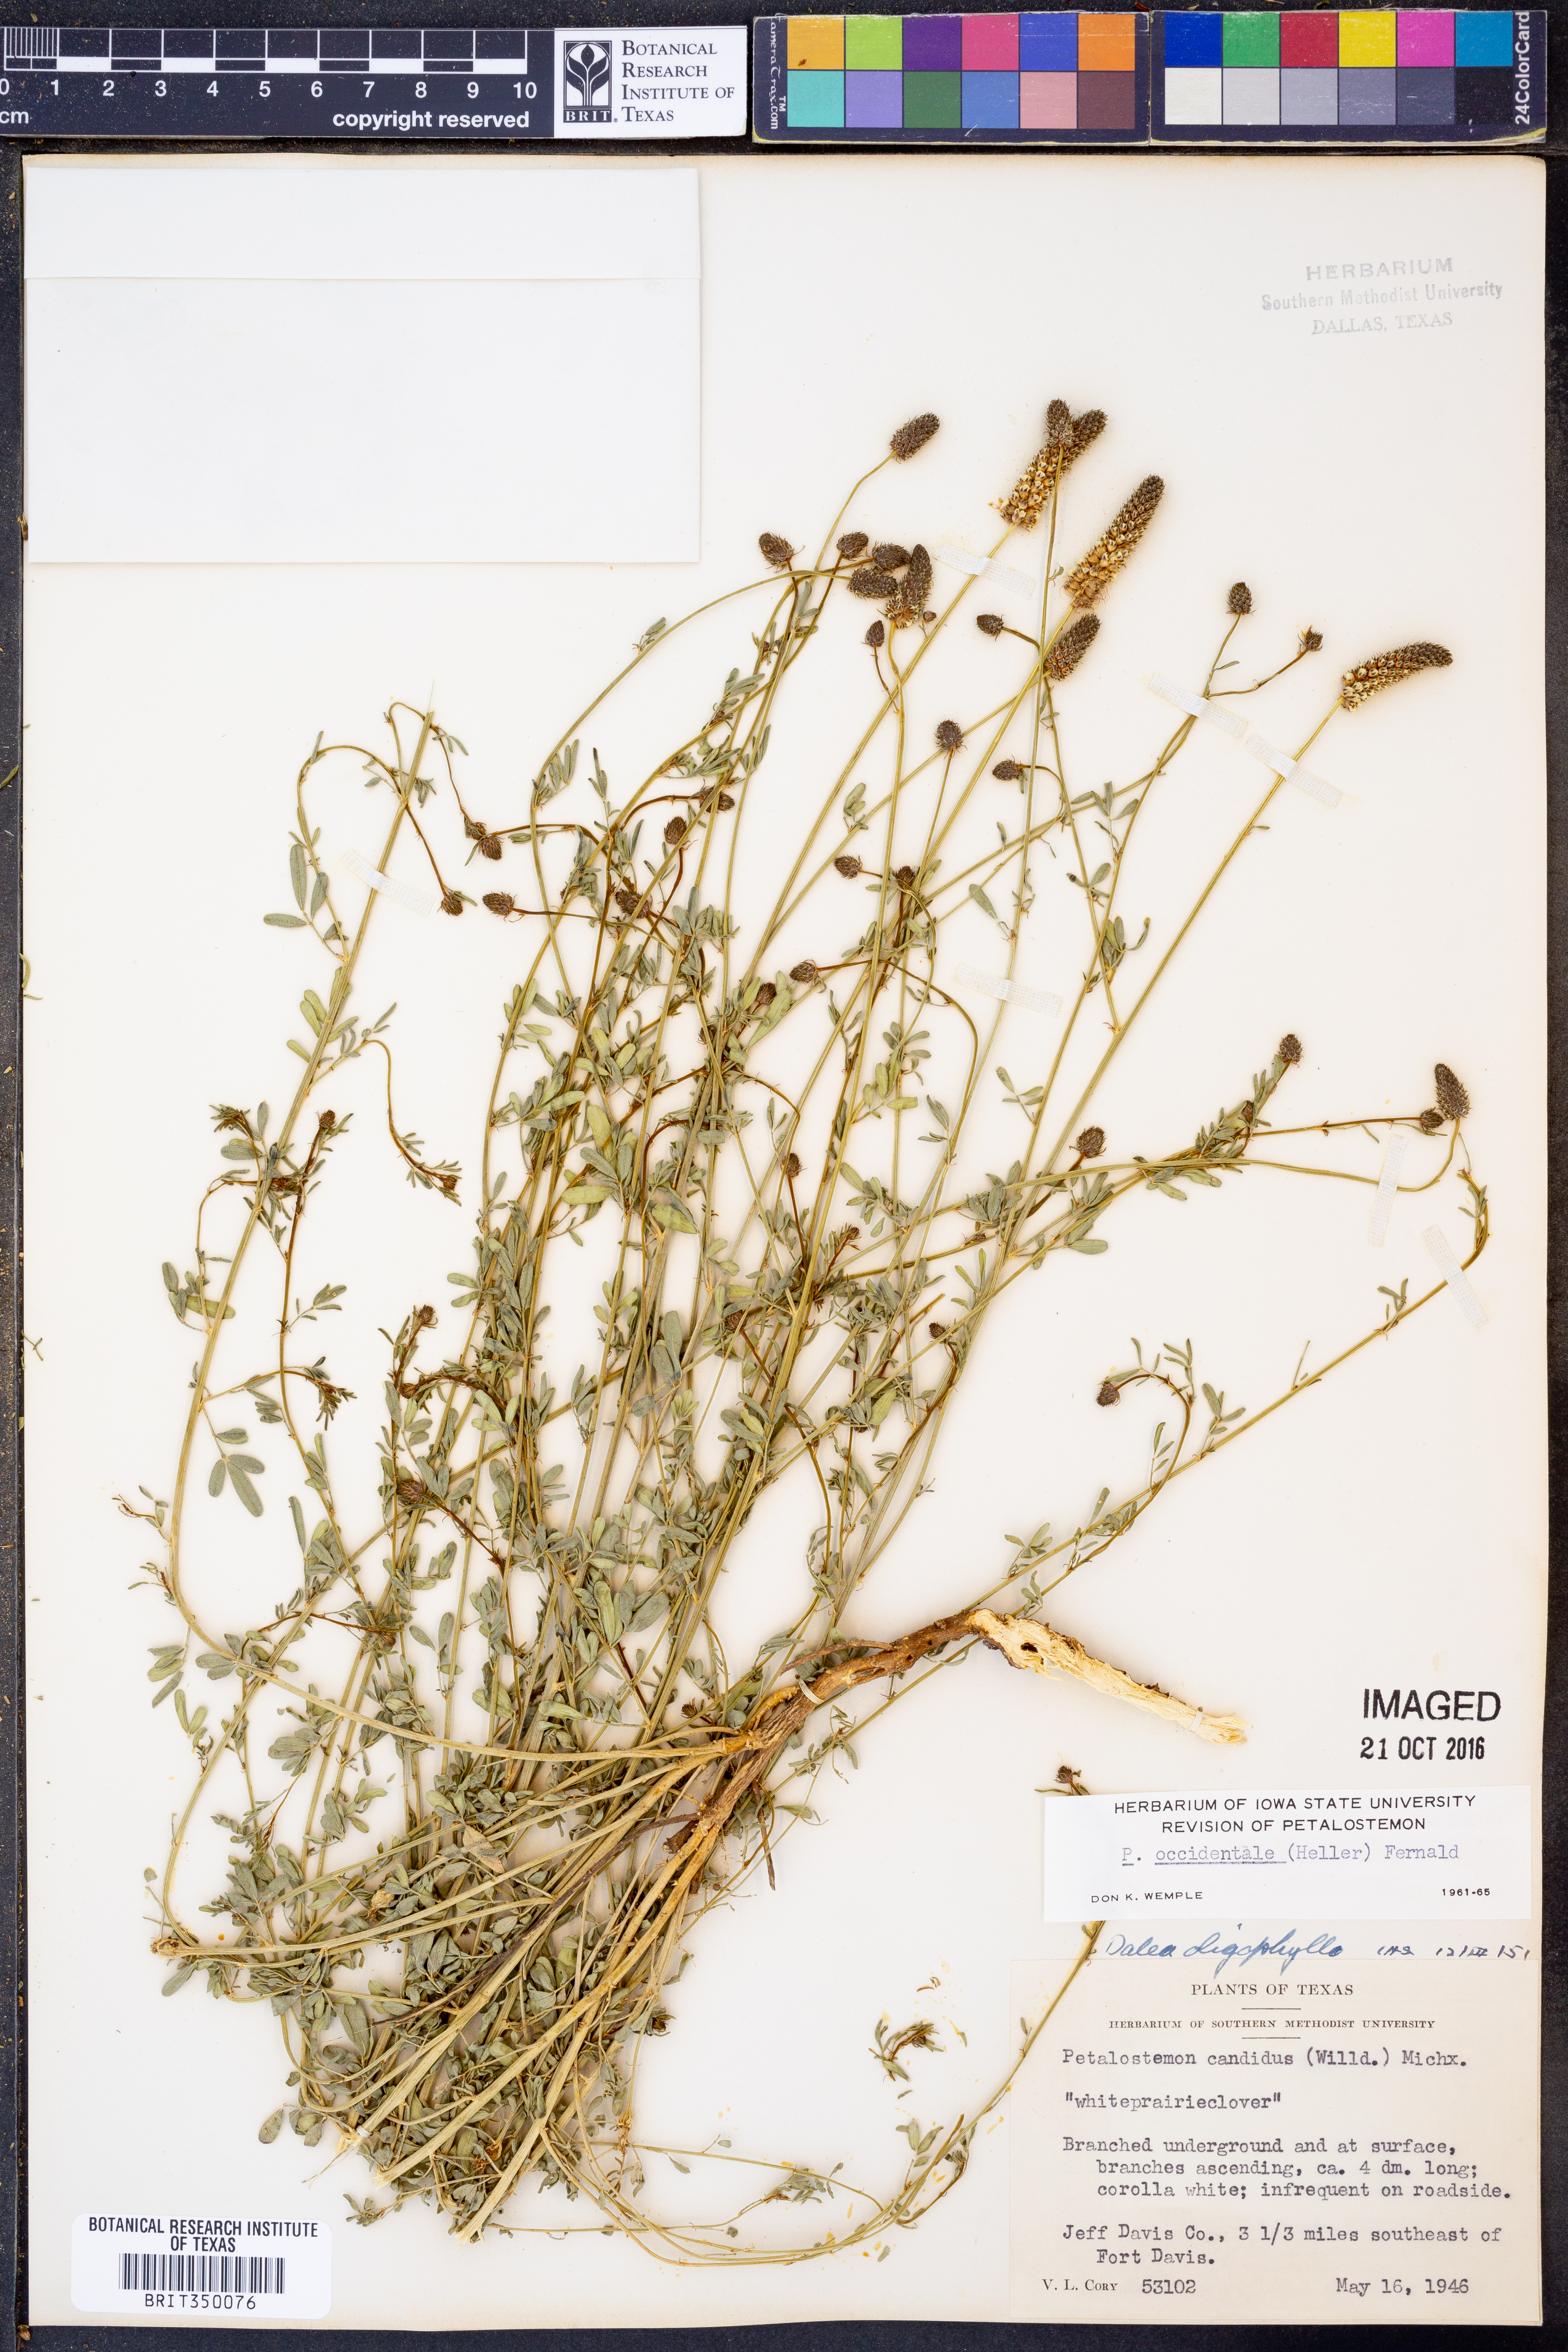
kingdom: Plantae
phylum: Tracheophyta
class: Magnoliopsida
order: Fabales
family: Fabaceae
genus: Dalea
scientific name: Dalea candida
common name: White prairie-clover
